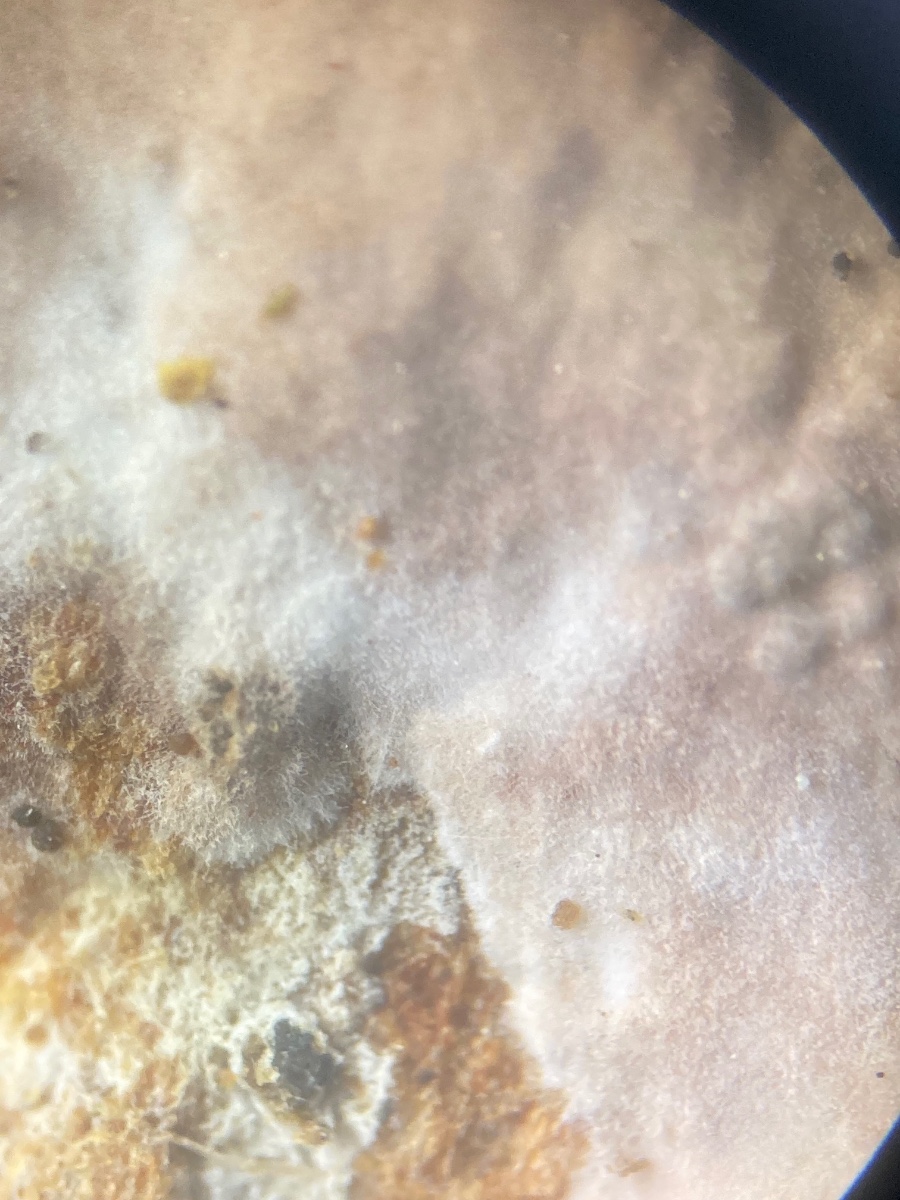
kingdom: Fungi
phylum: Basidiomycota
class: Agaricomycetes
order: Russulales
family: Echinodontiaceae
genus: Amylostereum
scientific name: Amylostereum
